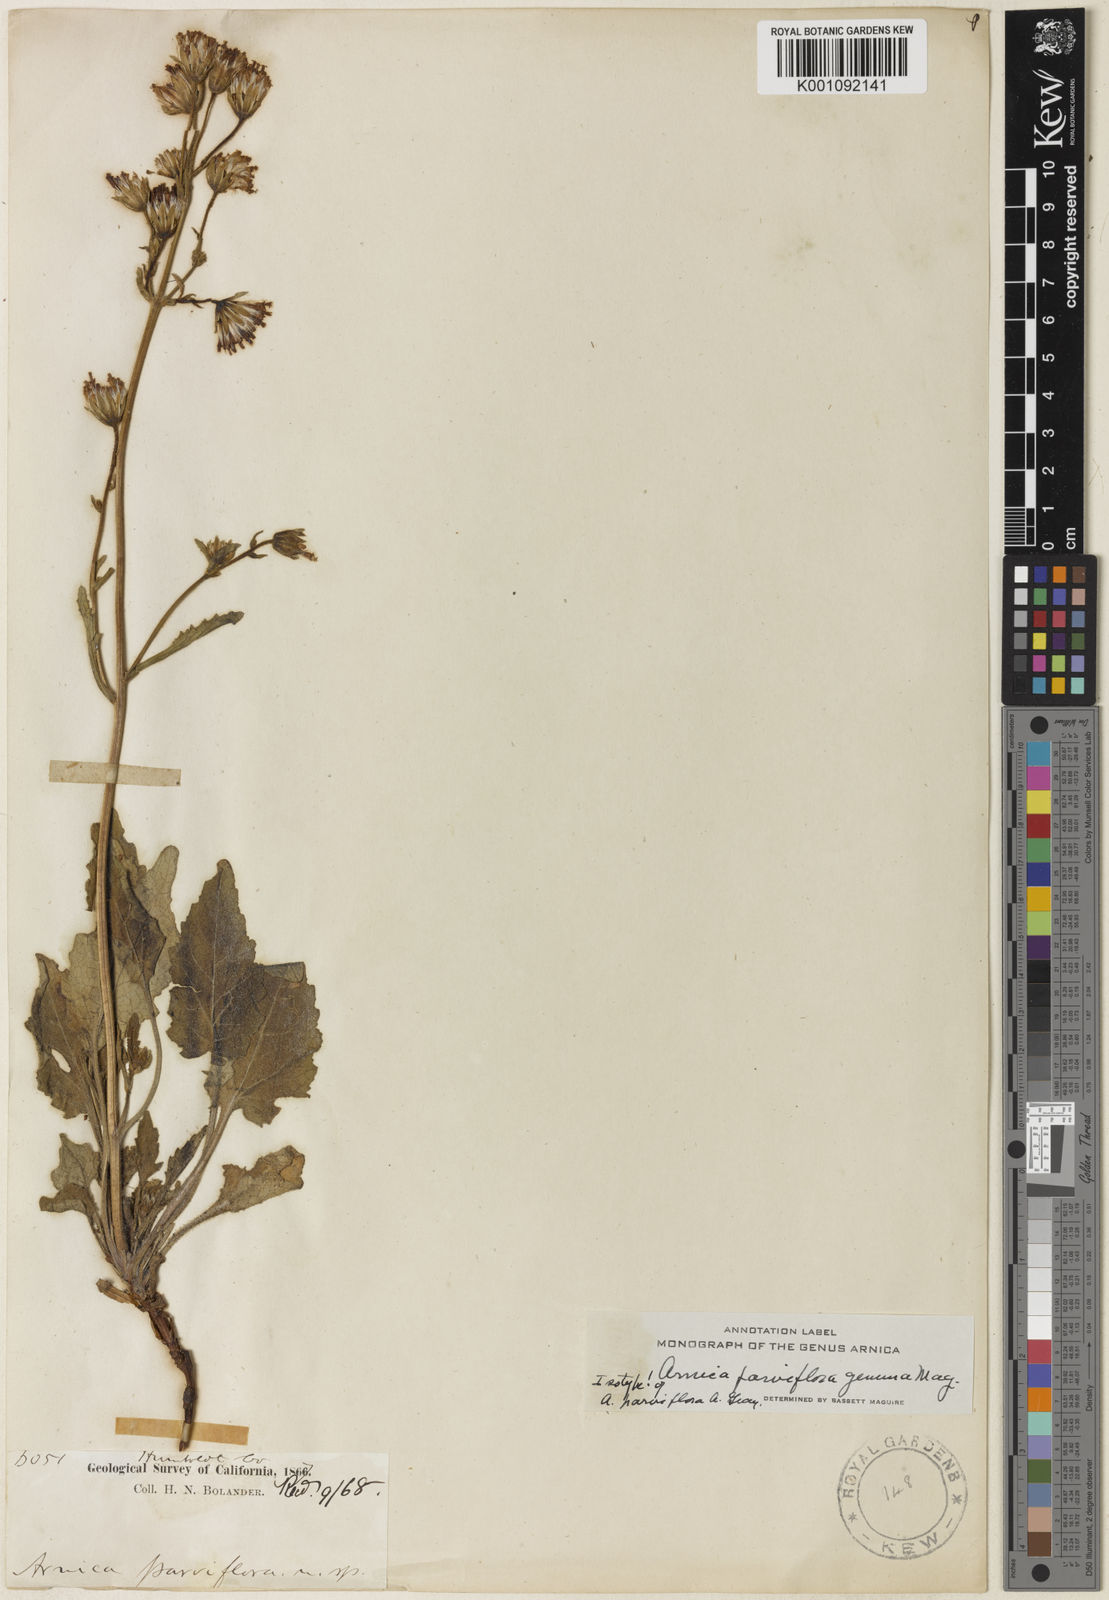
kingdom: Plantae
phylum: Tracheophyta
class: Magnoliopsida
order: Asterales
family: Asteraceae
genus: Arnica
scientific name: Arnica discoidea
